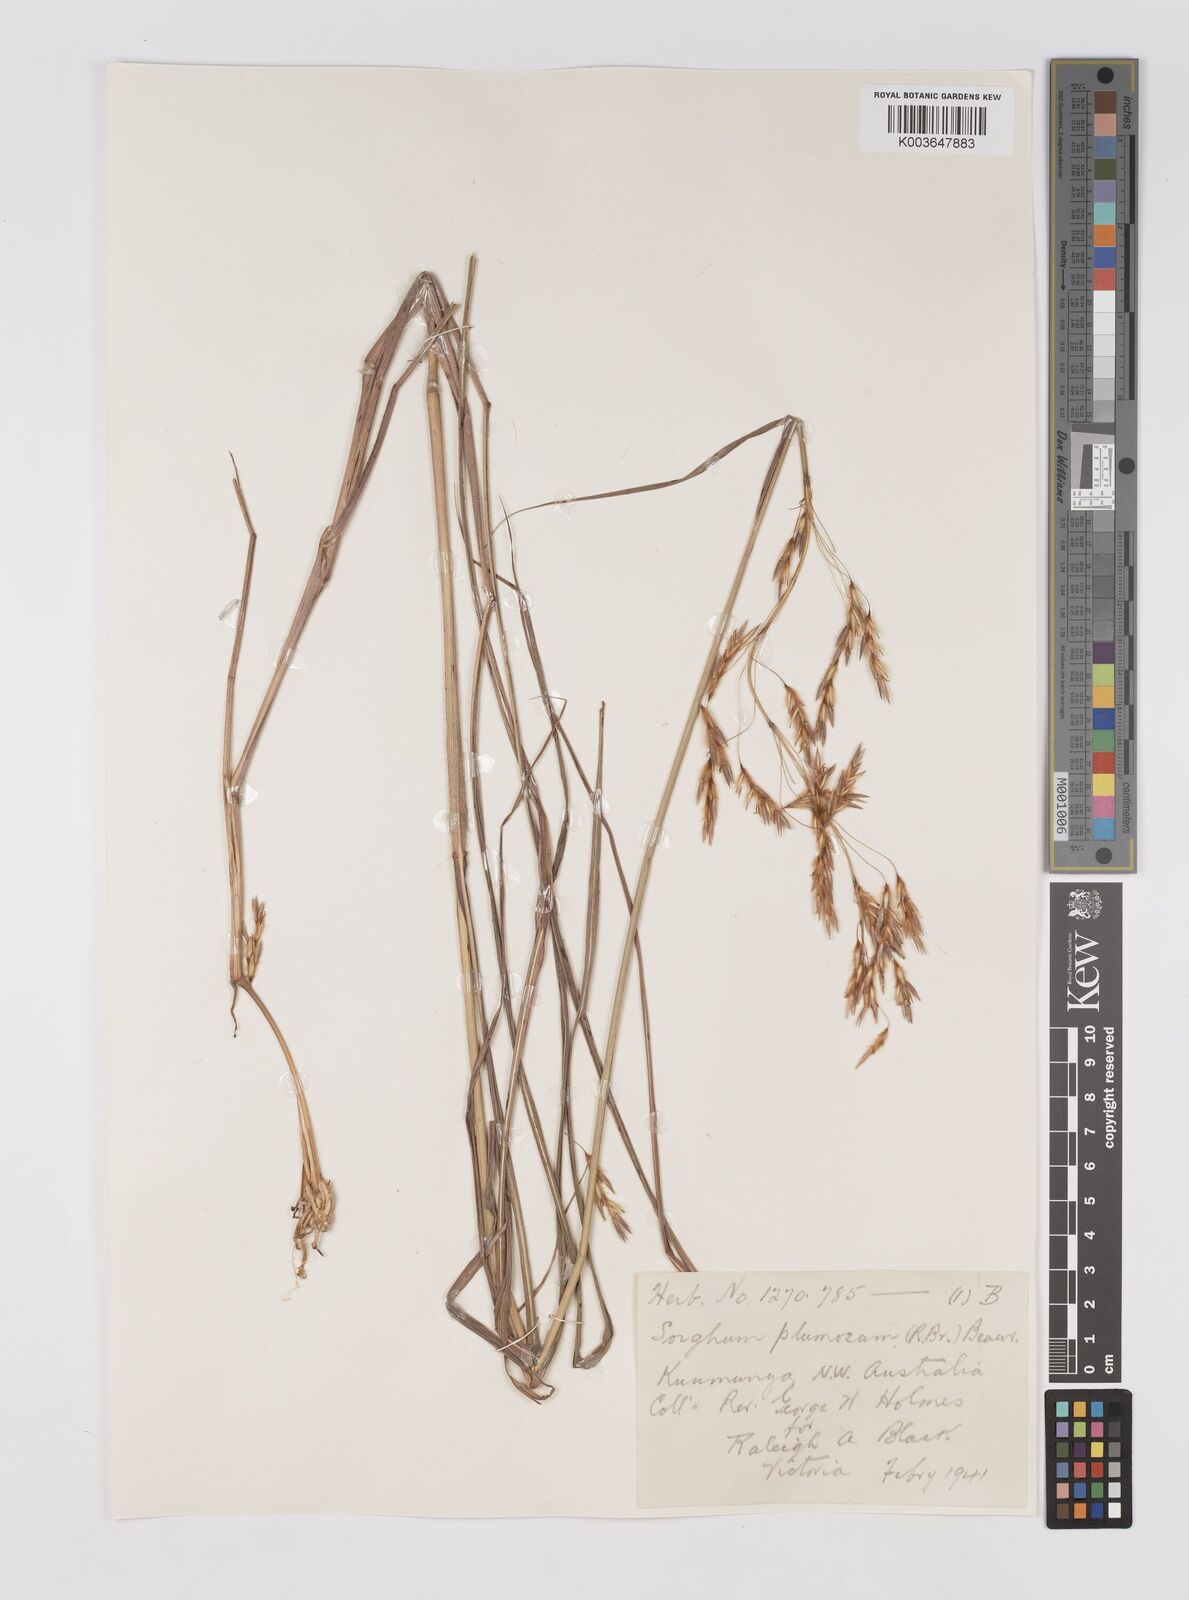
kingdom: Plantae
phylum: Tracheophyta
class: Liliopsida
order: Poales
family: Poaceae
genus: Sarga
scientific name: Sarga plumosa
